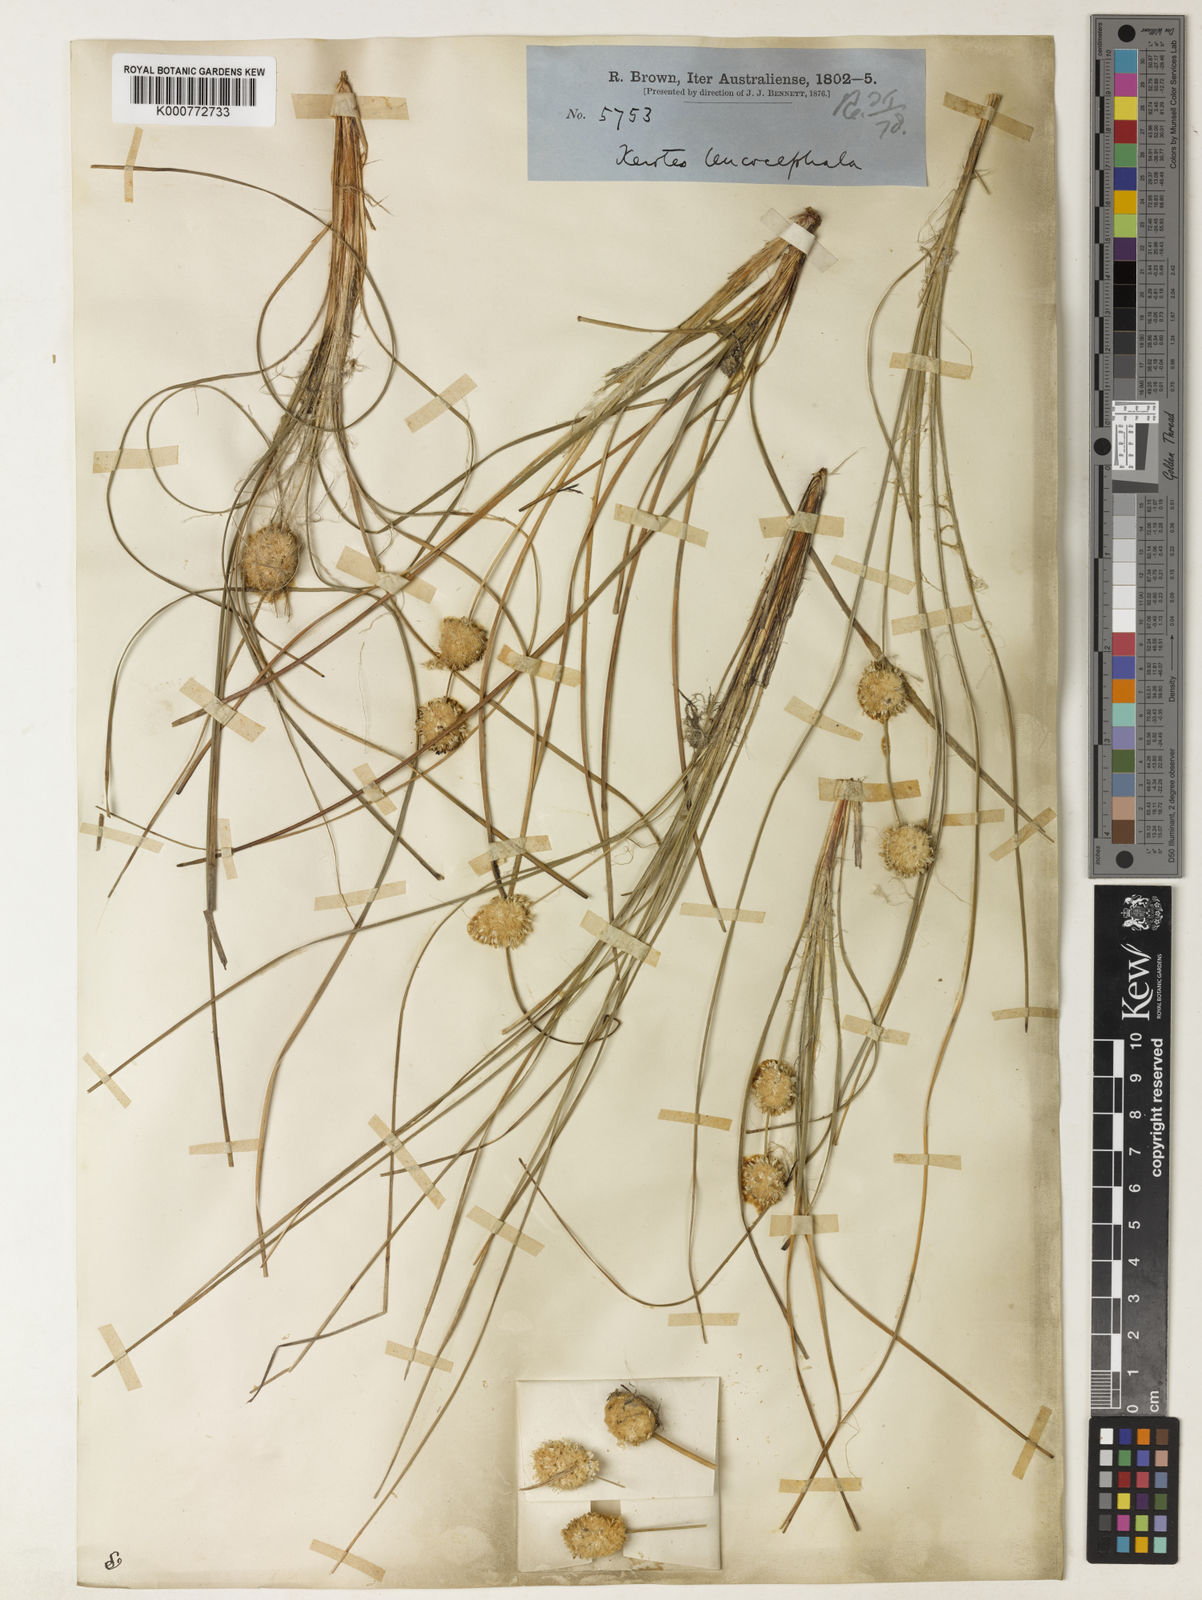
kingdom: Plantae
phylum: Tracheophyta
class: Liliopsida
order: Asparagales
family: Asparagaceae
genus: Lomandra
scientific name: Lomandra leucocephala
